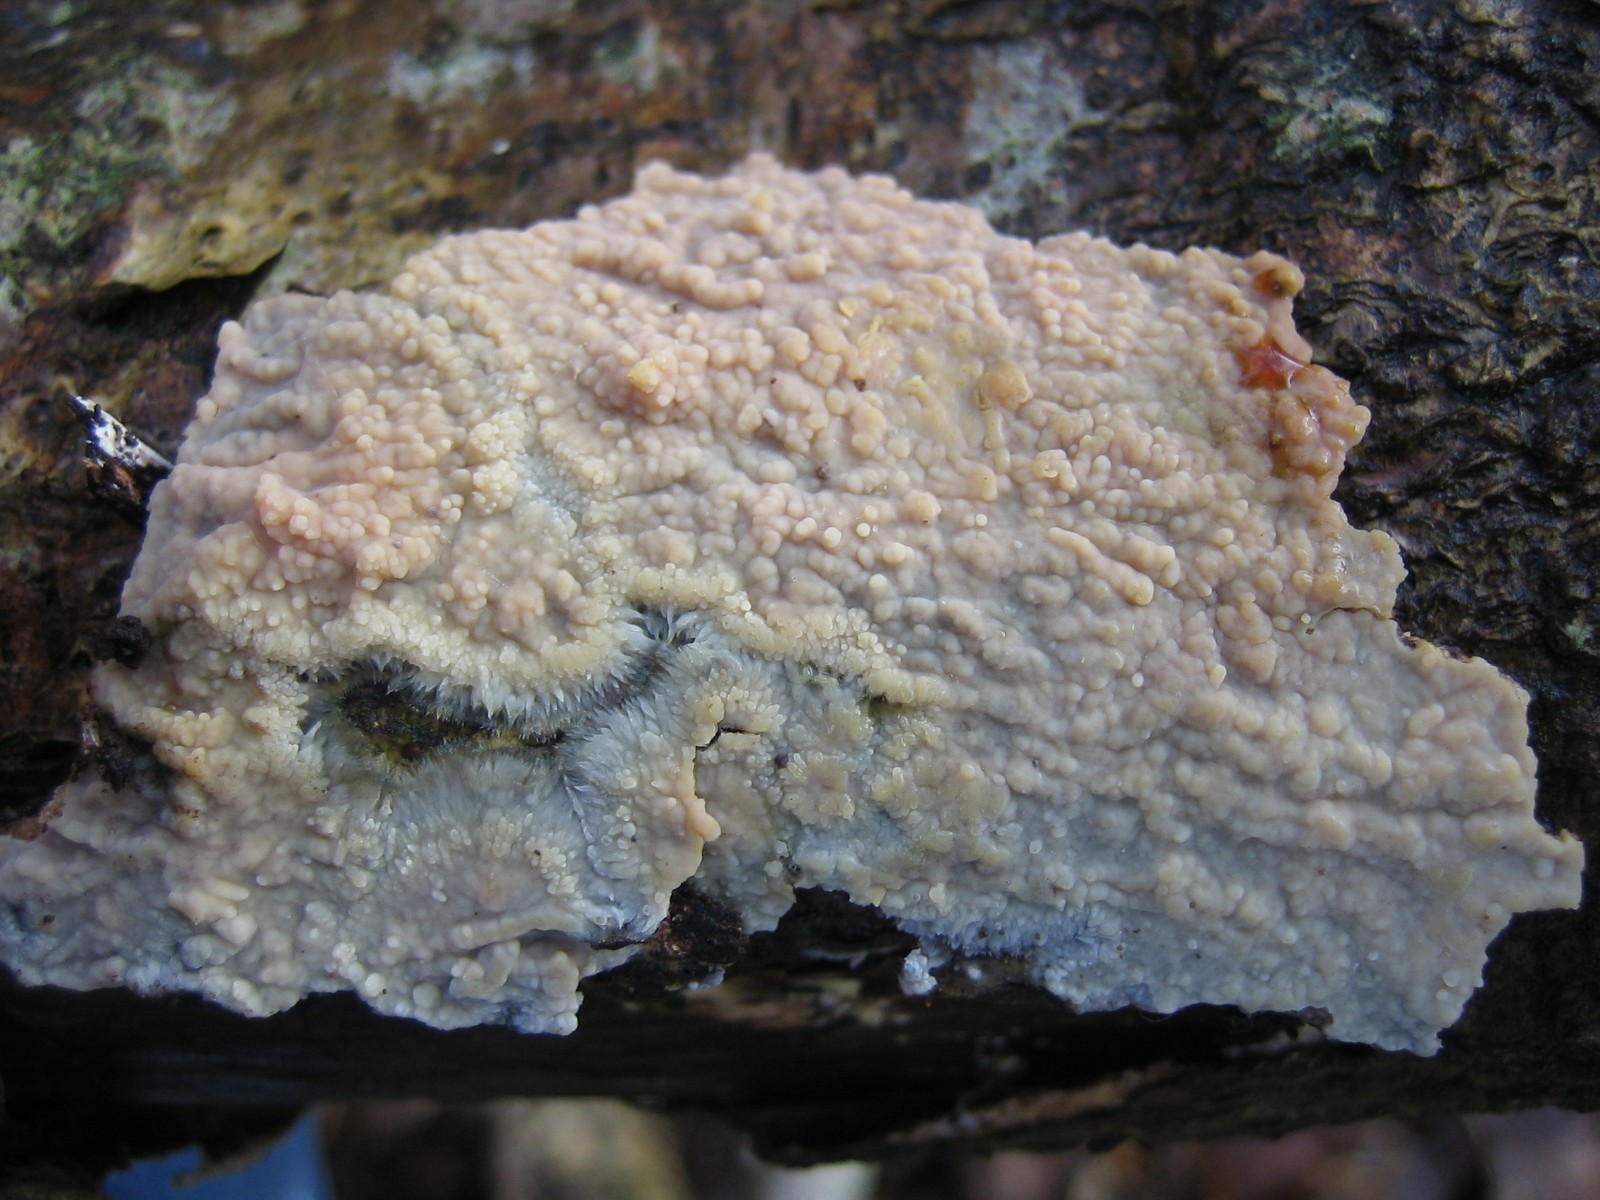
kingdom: Fungi
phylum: Basidiomycota
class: Agaricomycetes
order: Polyporales
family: Meruliaceae
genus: Phlebia
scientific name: Phlebia radiata
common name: stråle-åresvamp
